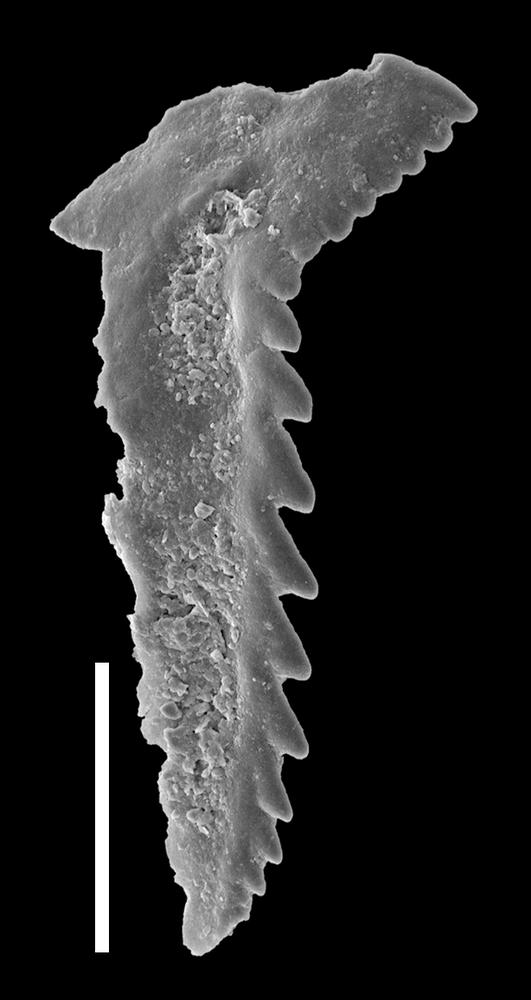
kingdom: Animalia
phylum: Annelida
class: Polychaeta
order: Eunicida
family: Conjungaspidae
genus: Conjungaspis
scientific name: Conjungaspis minutus
